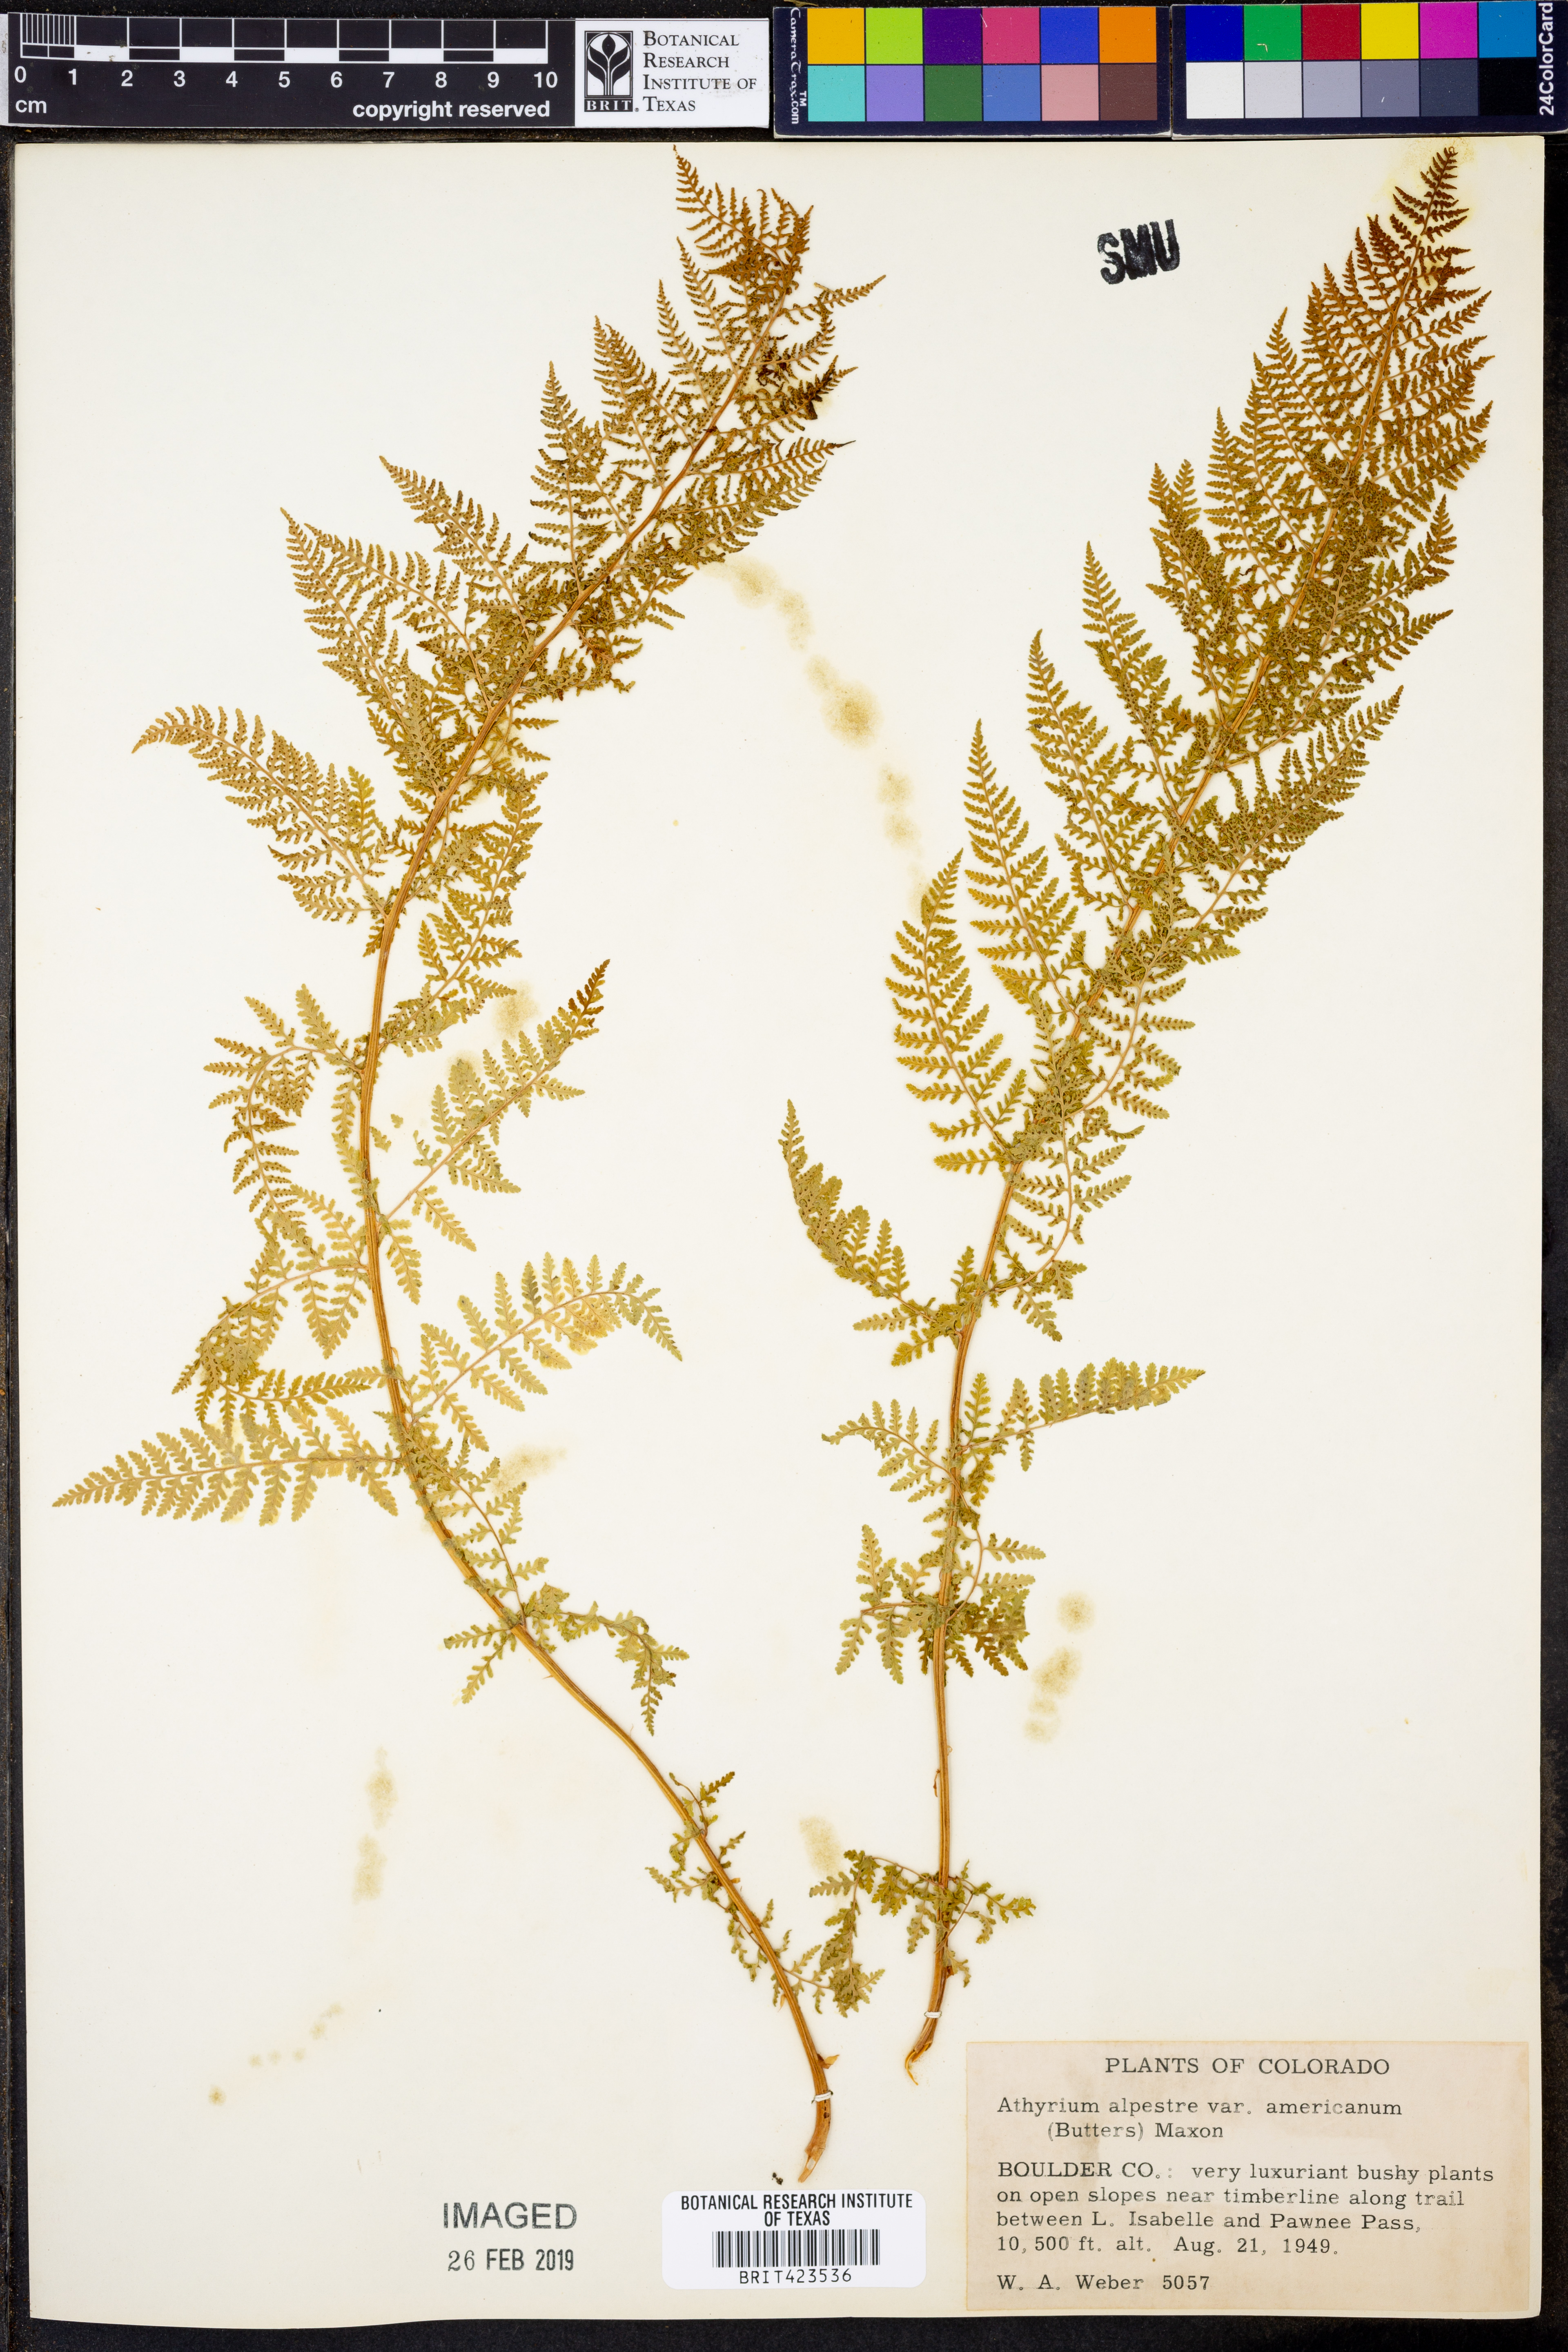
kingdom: Plantae
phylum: Tracheophyta
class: Polypodiopsida
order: Polypodiales
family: Athyriaceae
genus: Athyrium
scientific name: Athyrium americanum
